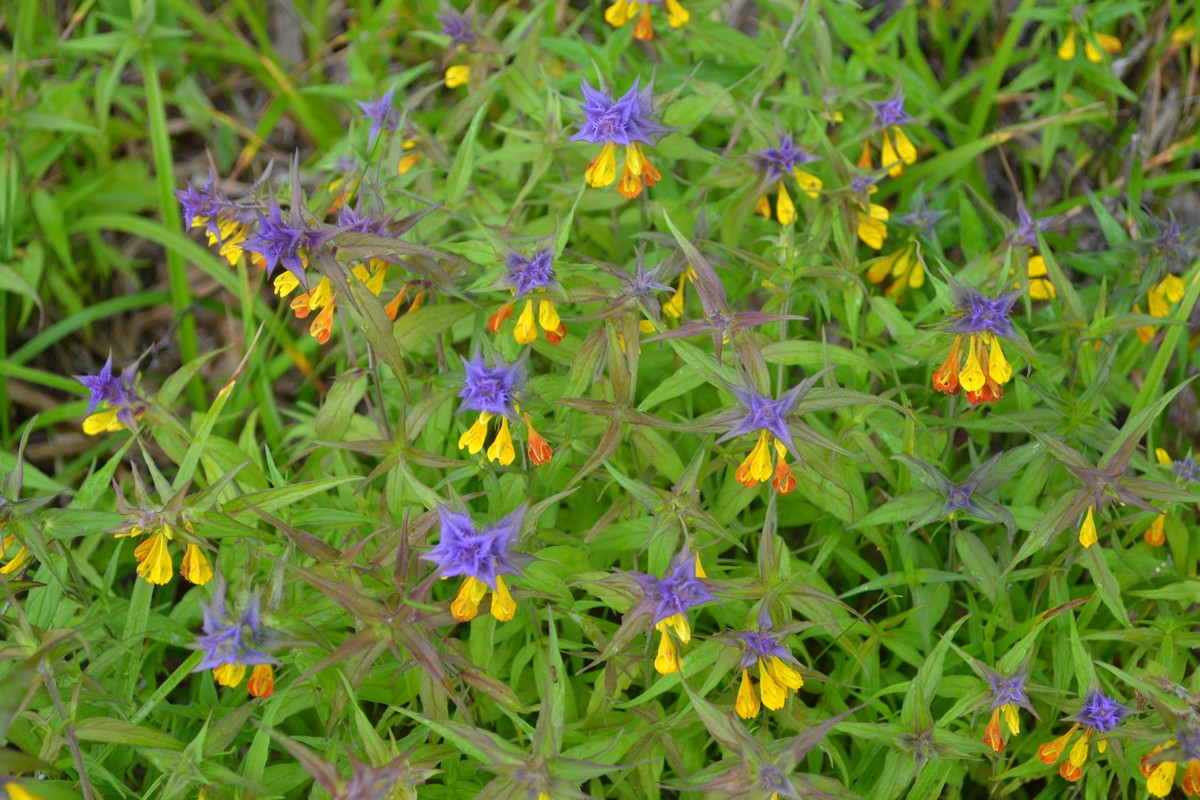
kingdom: Plantae
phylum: Tracheophyta
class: Magnoliopsida
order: Lamiales
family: Orobanchaceae
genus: Melampyrum
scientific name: Melampyrum nemorosum
